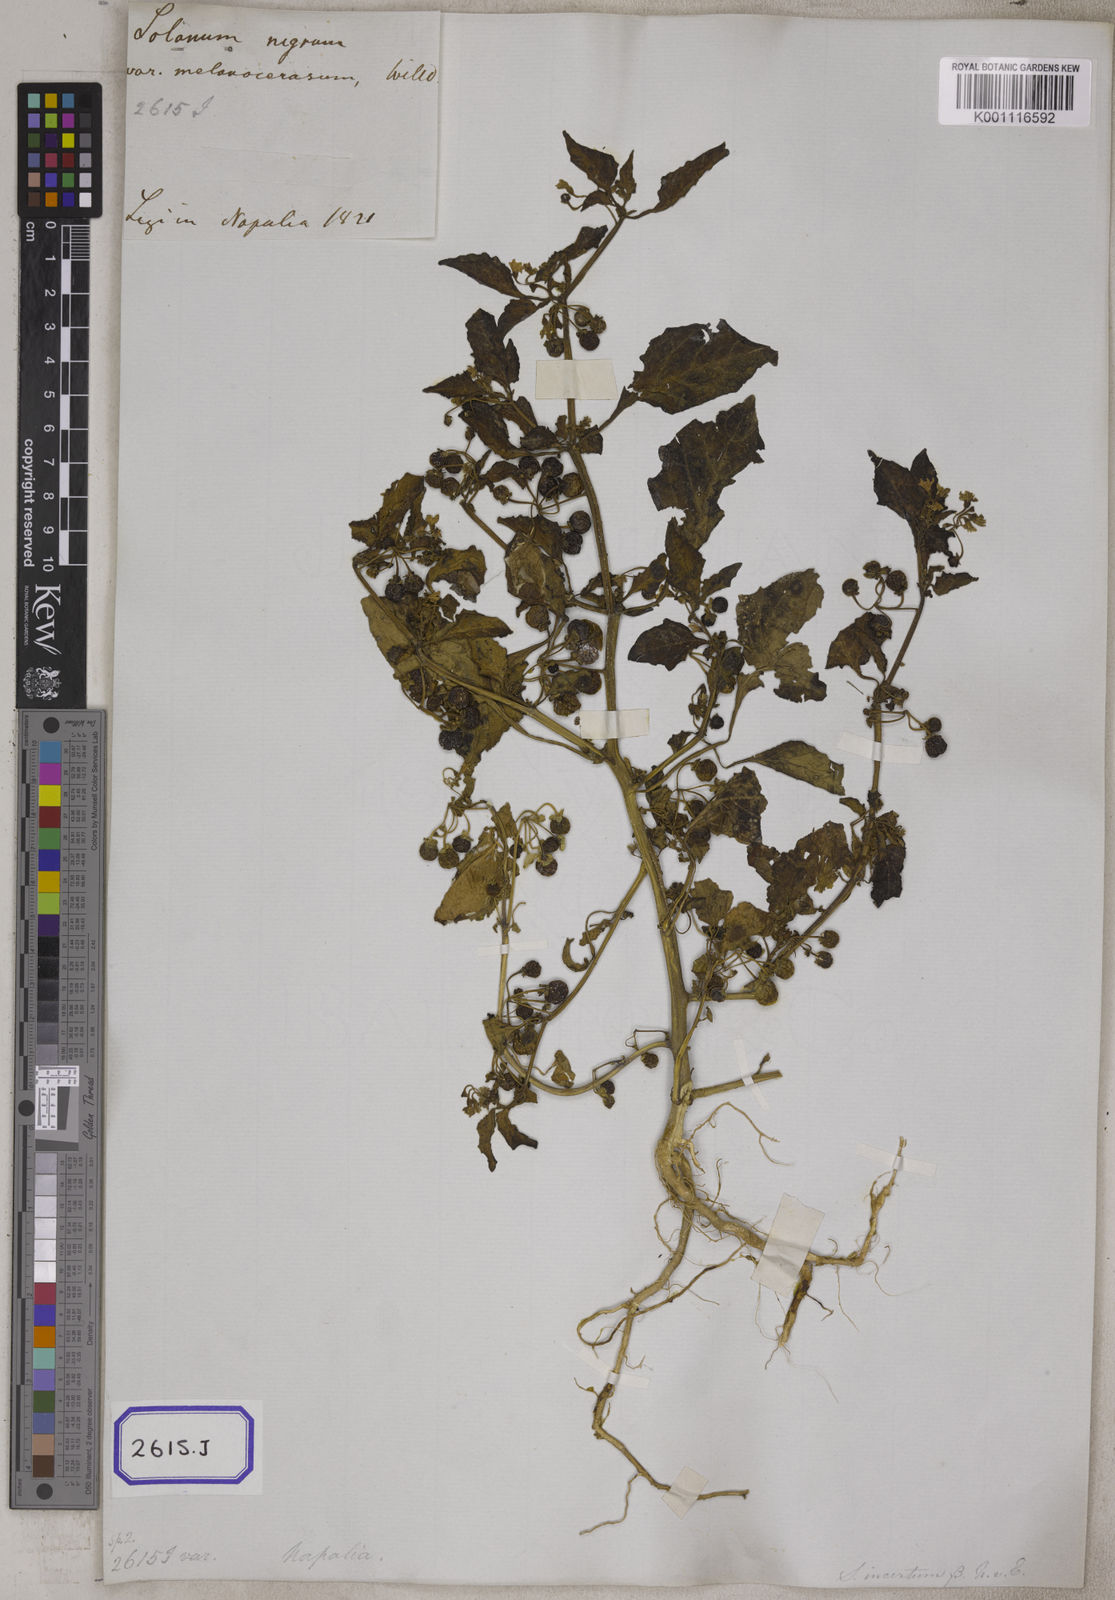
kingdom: Plantae
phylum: Tracheophyta
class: Magnoliopsida
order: Solanales
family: Solanaceae
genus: Solanum
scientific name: Solanum nigrum
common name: Black nightshade
